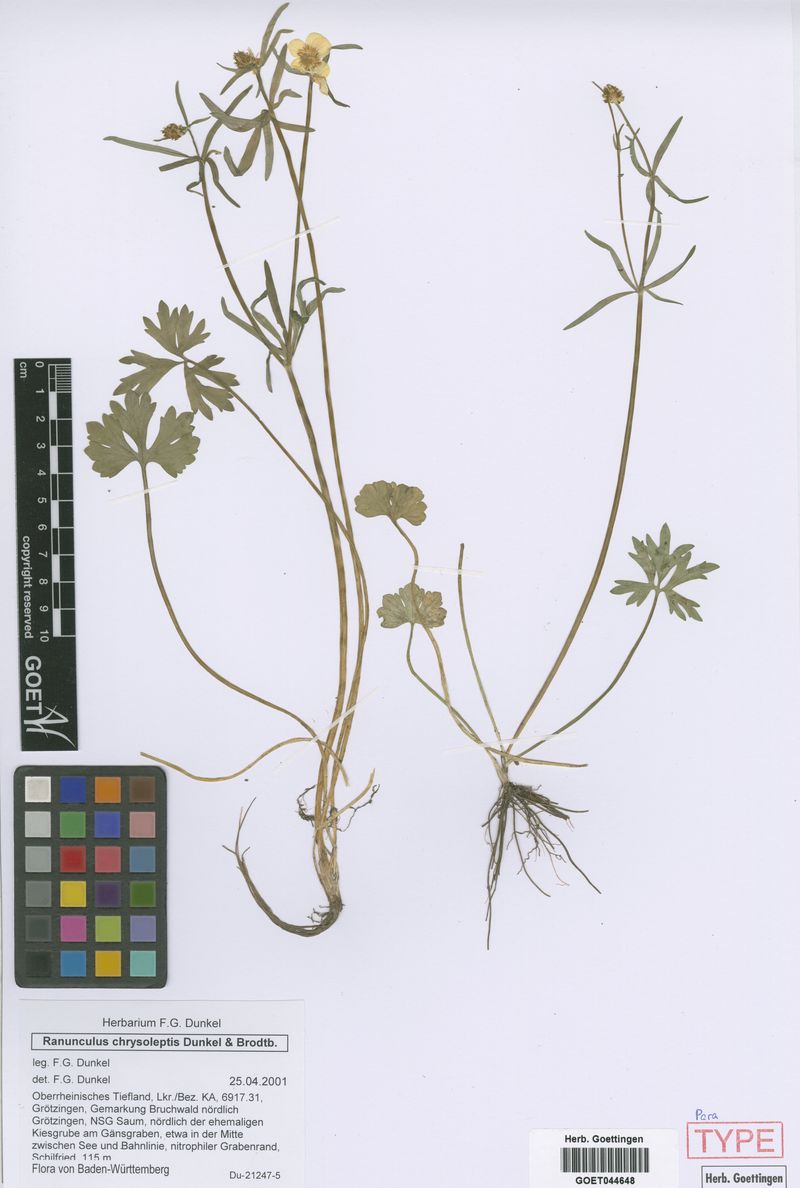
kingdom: Plantae
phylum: Tracheophyta
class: Magnoliopsida
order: Ranunculales
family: Ranunculaceae
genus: Ranunculus
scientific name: Ranunculus chrysoleptos
